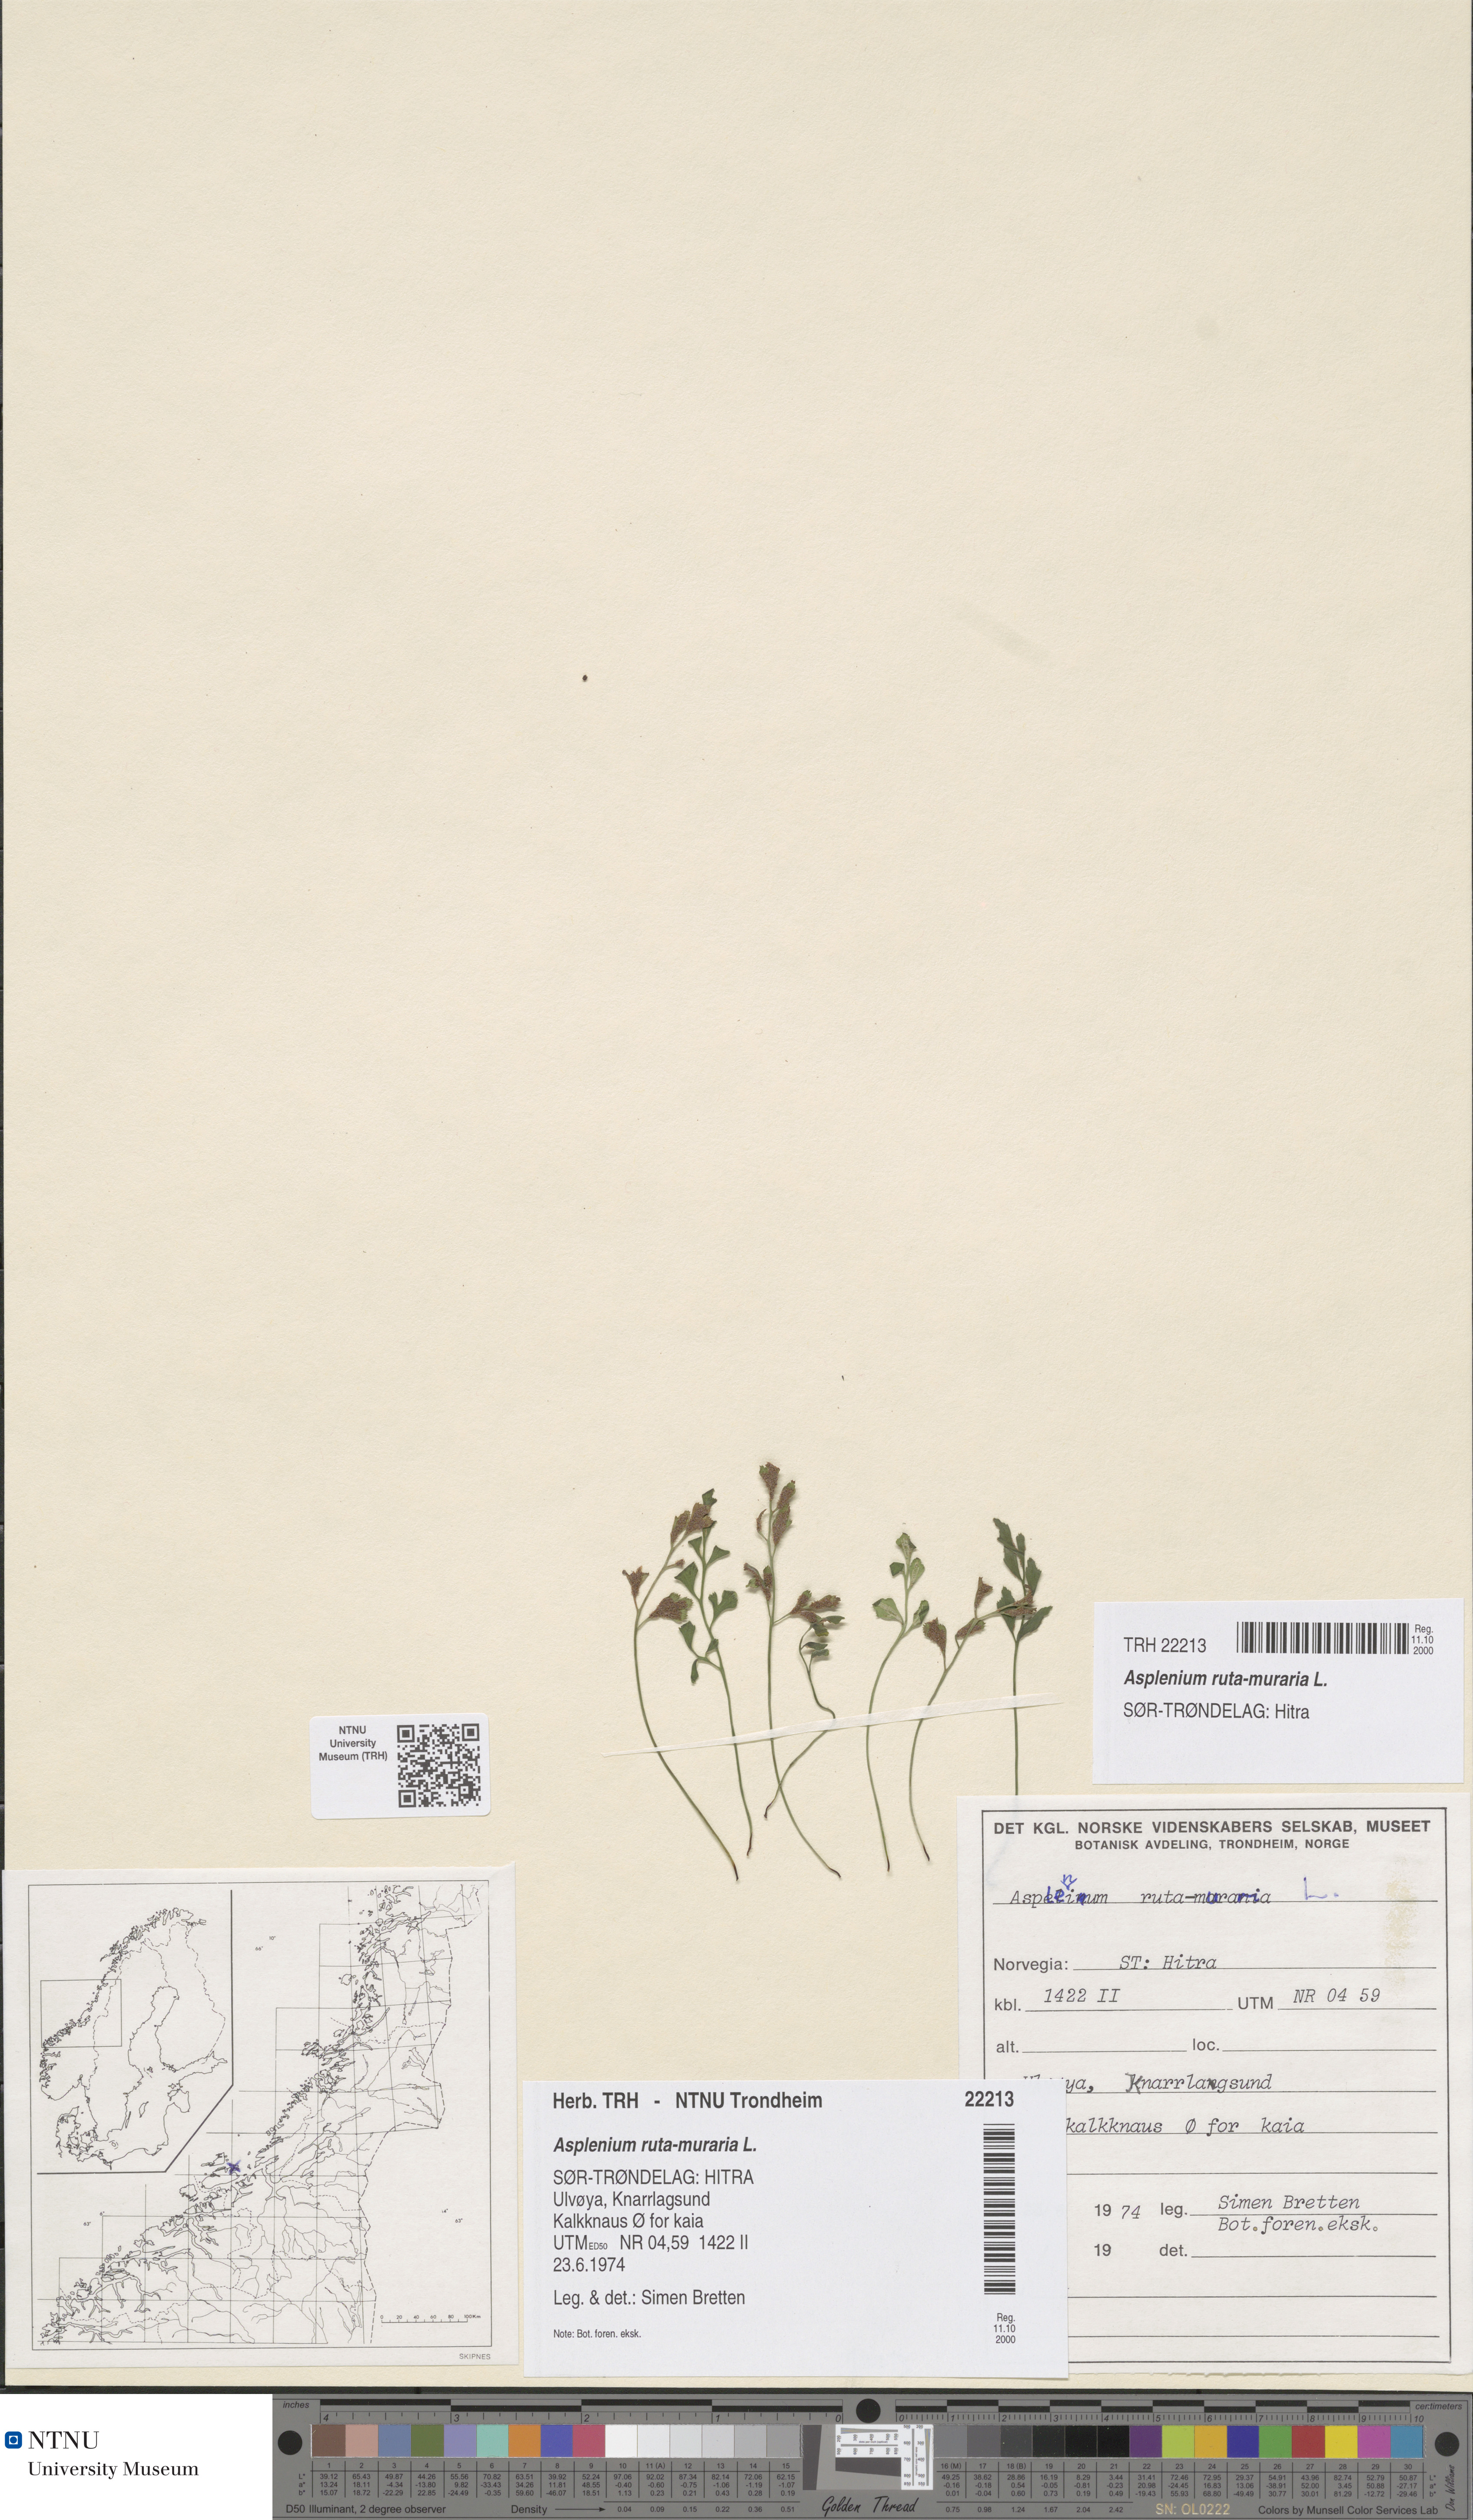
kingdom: Plantae
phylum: Tracheophyta
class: Polypodiopsida
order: Polypodiales
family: Aspleniaceae
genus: Asplenium
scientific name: Asplenium ruta-muraria
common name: Wall-rue
